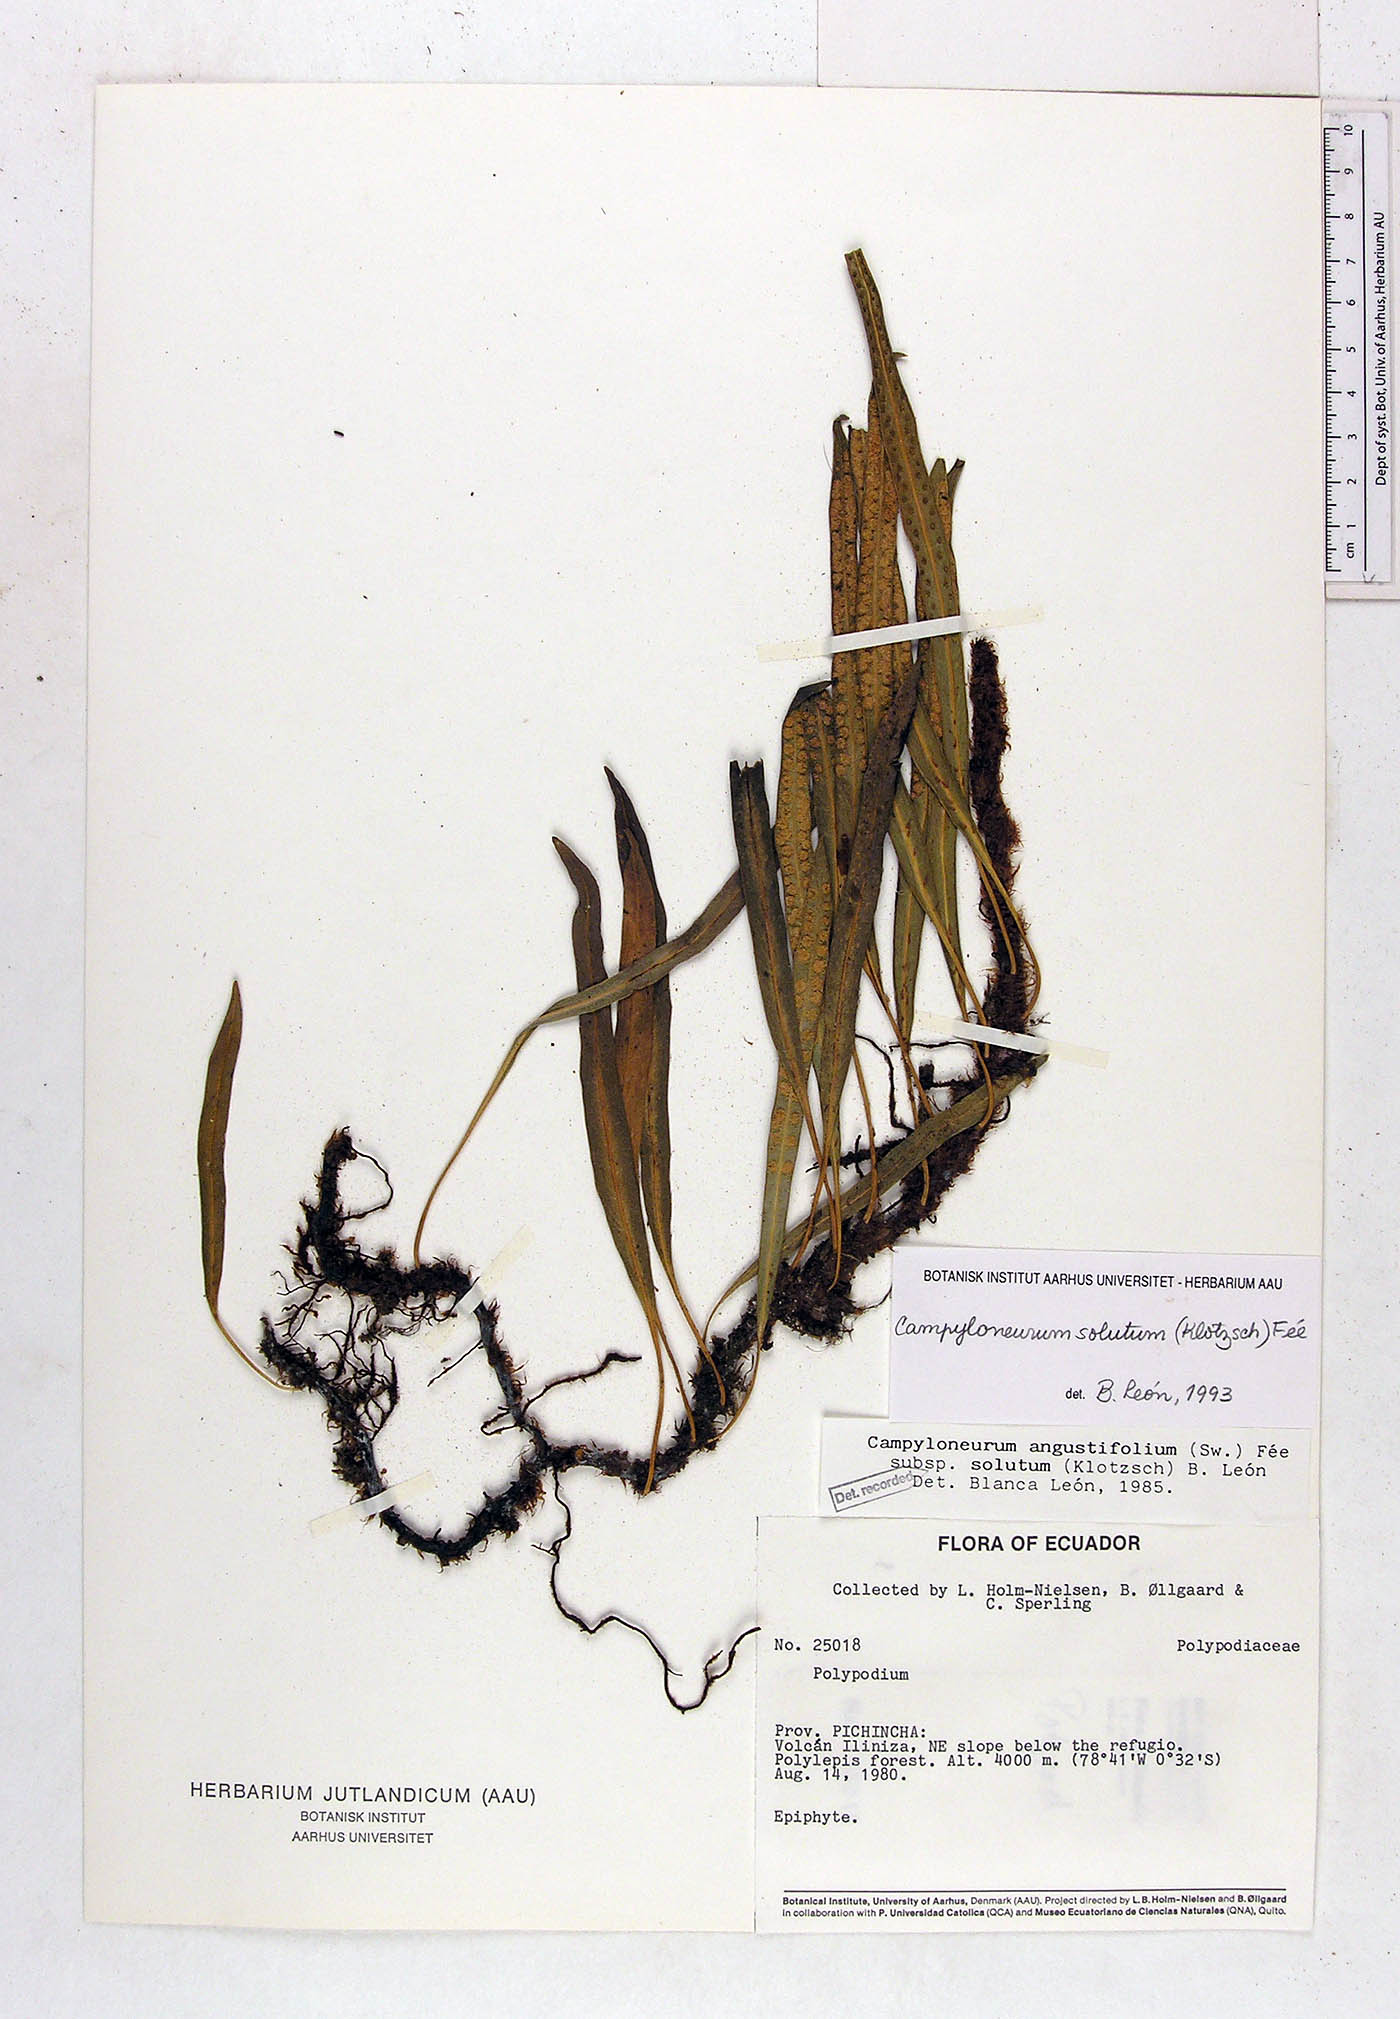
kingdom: Plantae
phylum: Tracheophyta
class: Polypodiopsida
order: Polypodiales
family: Polypodiaceae
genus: Campyloneurum
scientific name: Campyloneurum solutum
